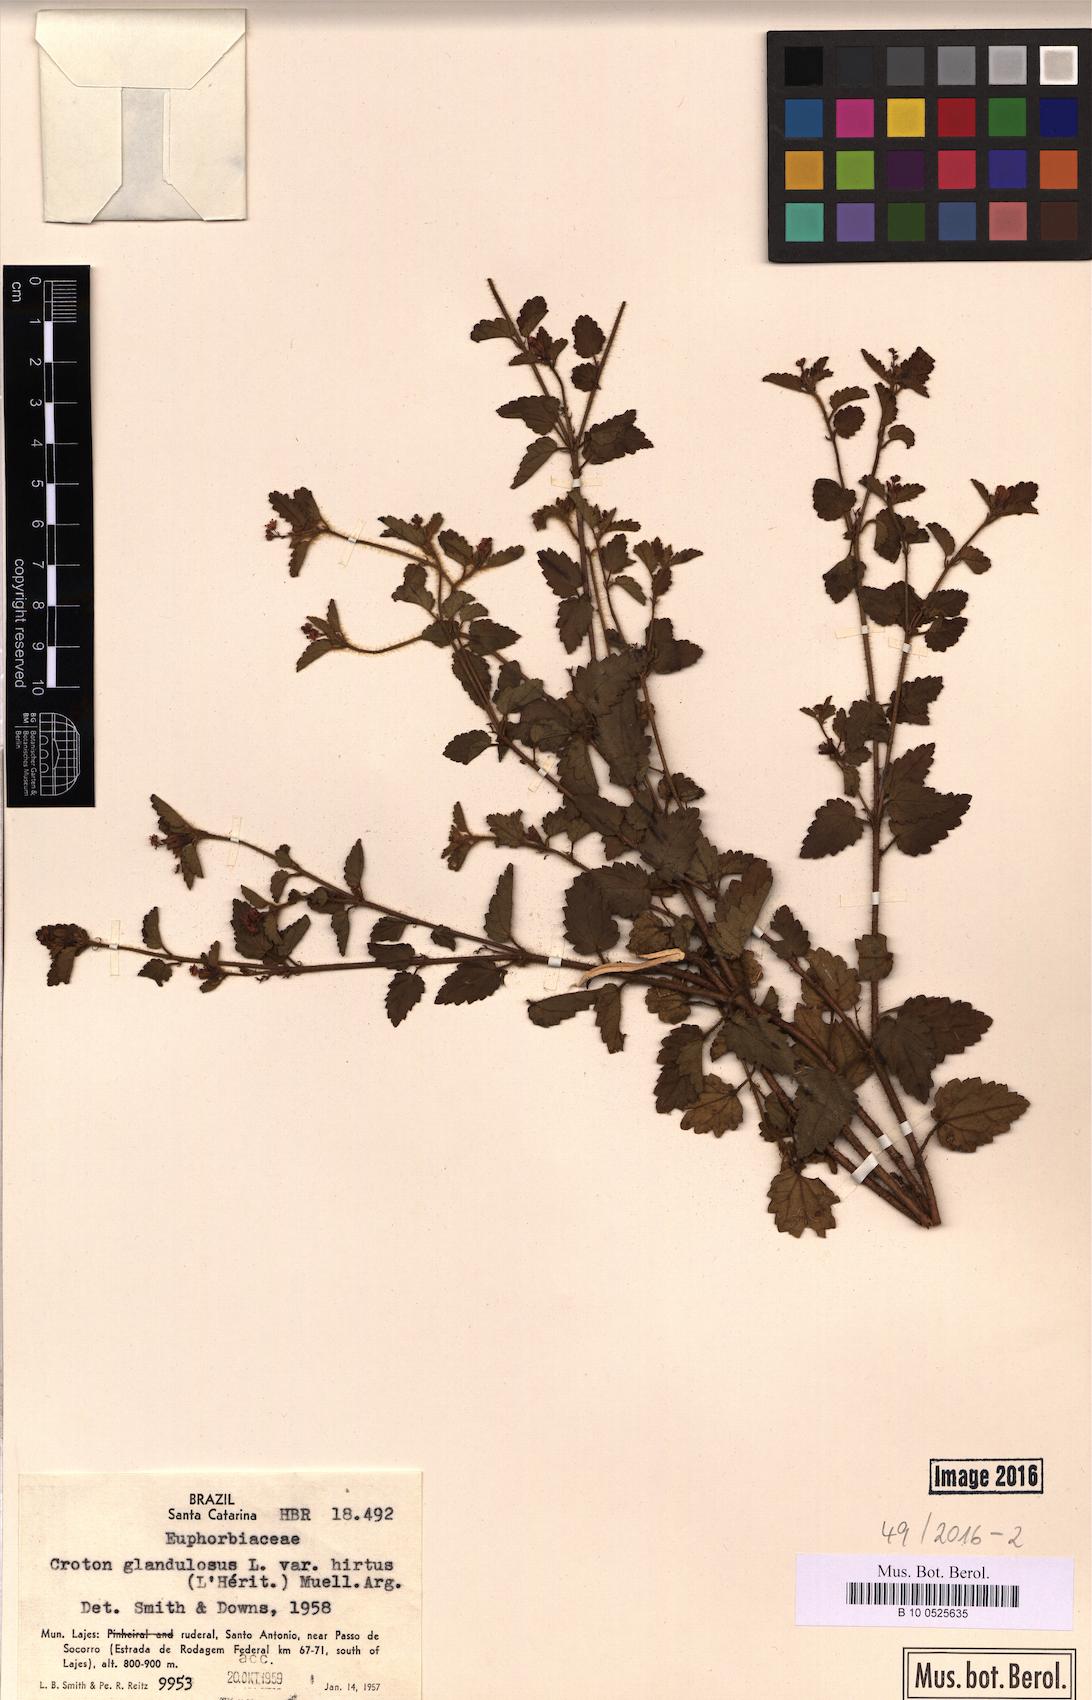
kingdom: Plantae
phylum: Tracheophyta
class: Magnoliopsida
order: Malpighiales
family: Euphorbiaceae
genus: Croton
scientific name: Croton glandulosus
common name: Tropic croton
